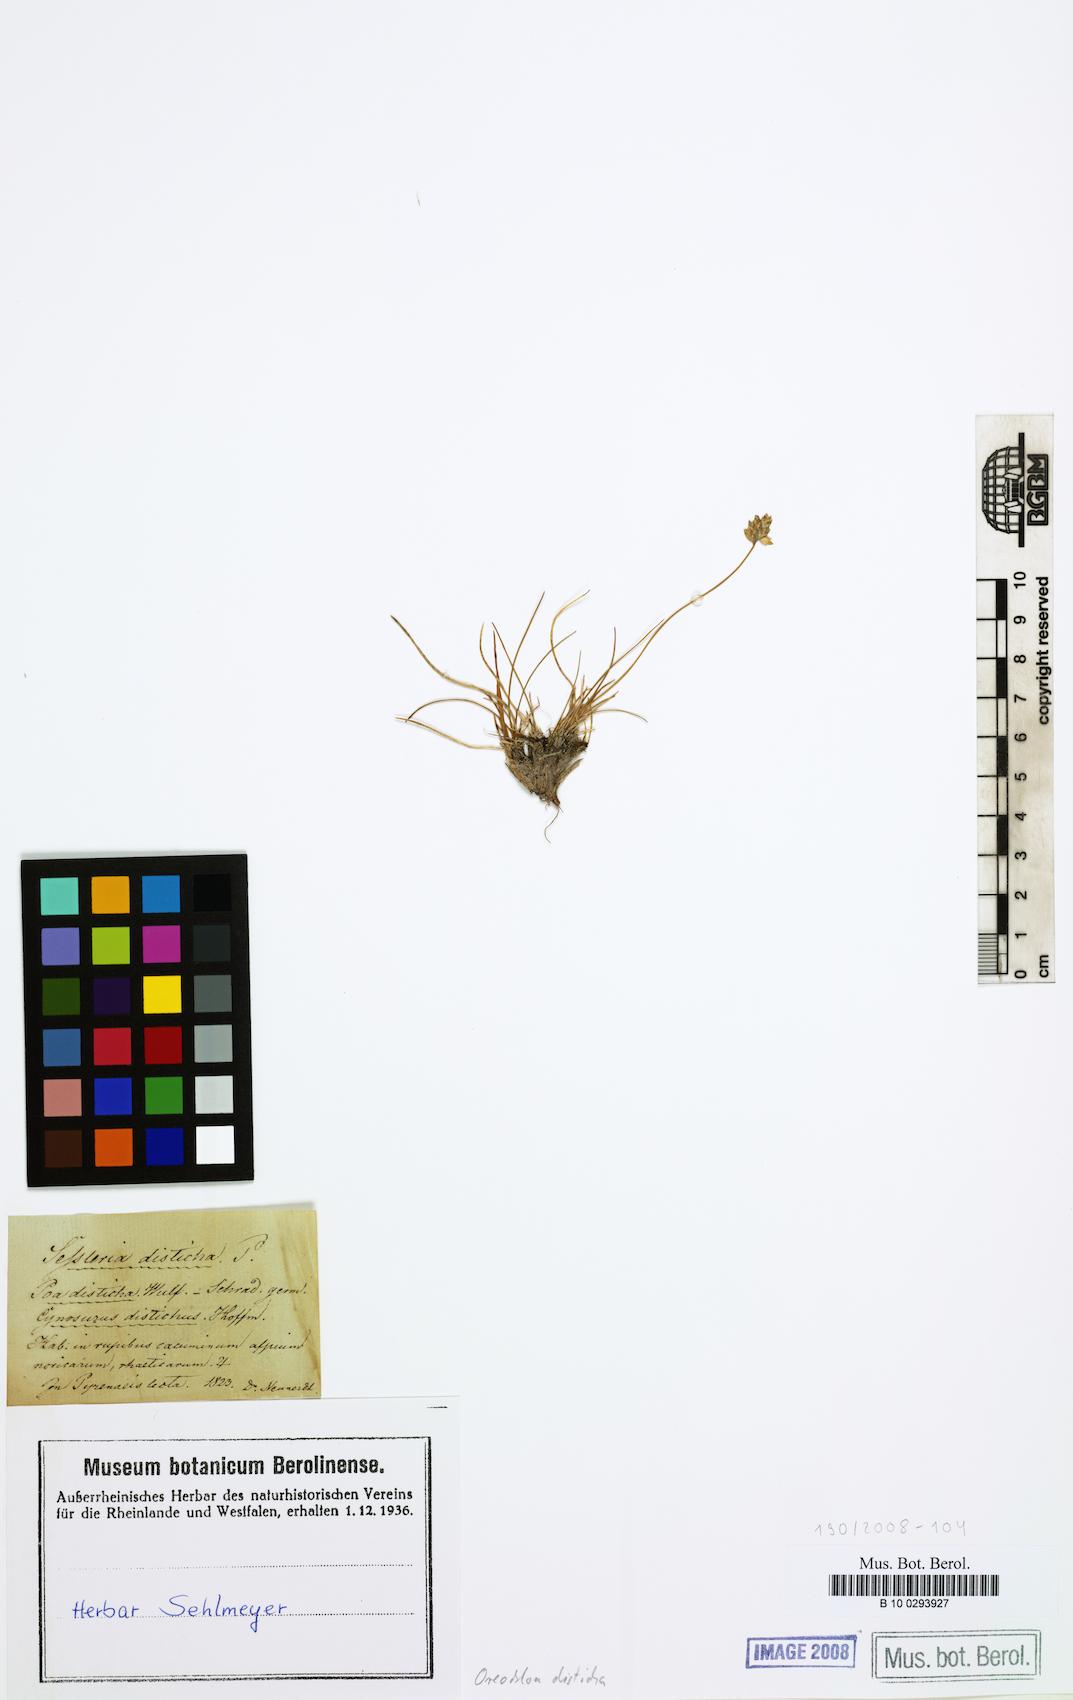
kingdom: Plantae
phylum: Tracheophyta
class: Liliopsida
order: Poales
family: Poaceae
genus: Oreochloa
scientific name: Oreochloa disticha
